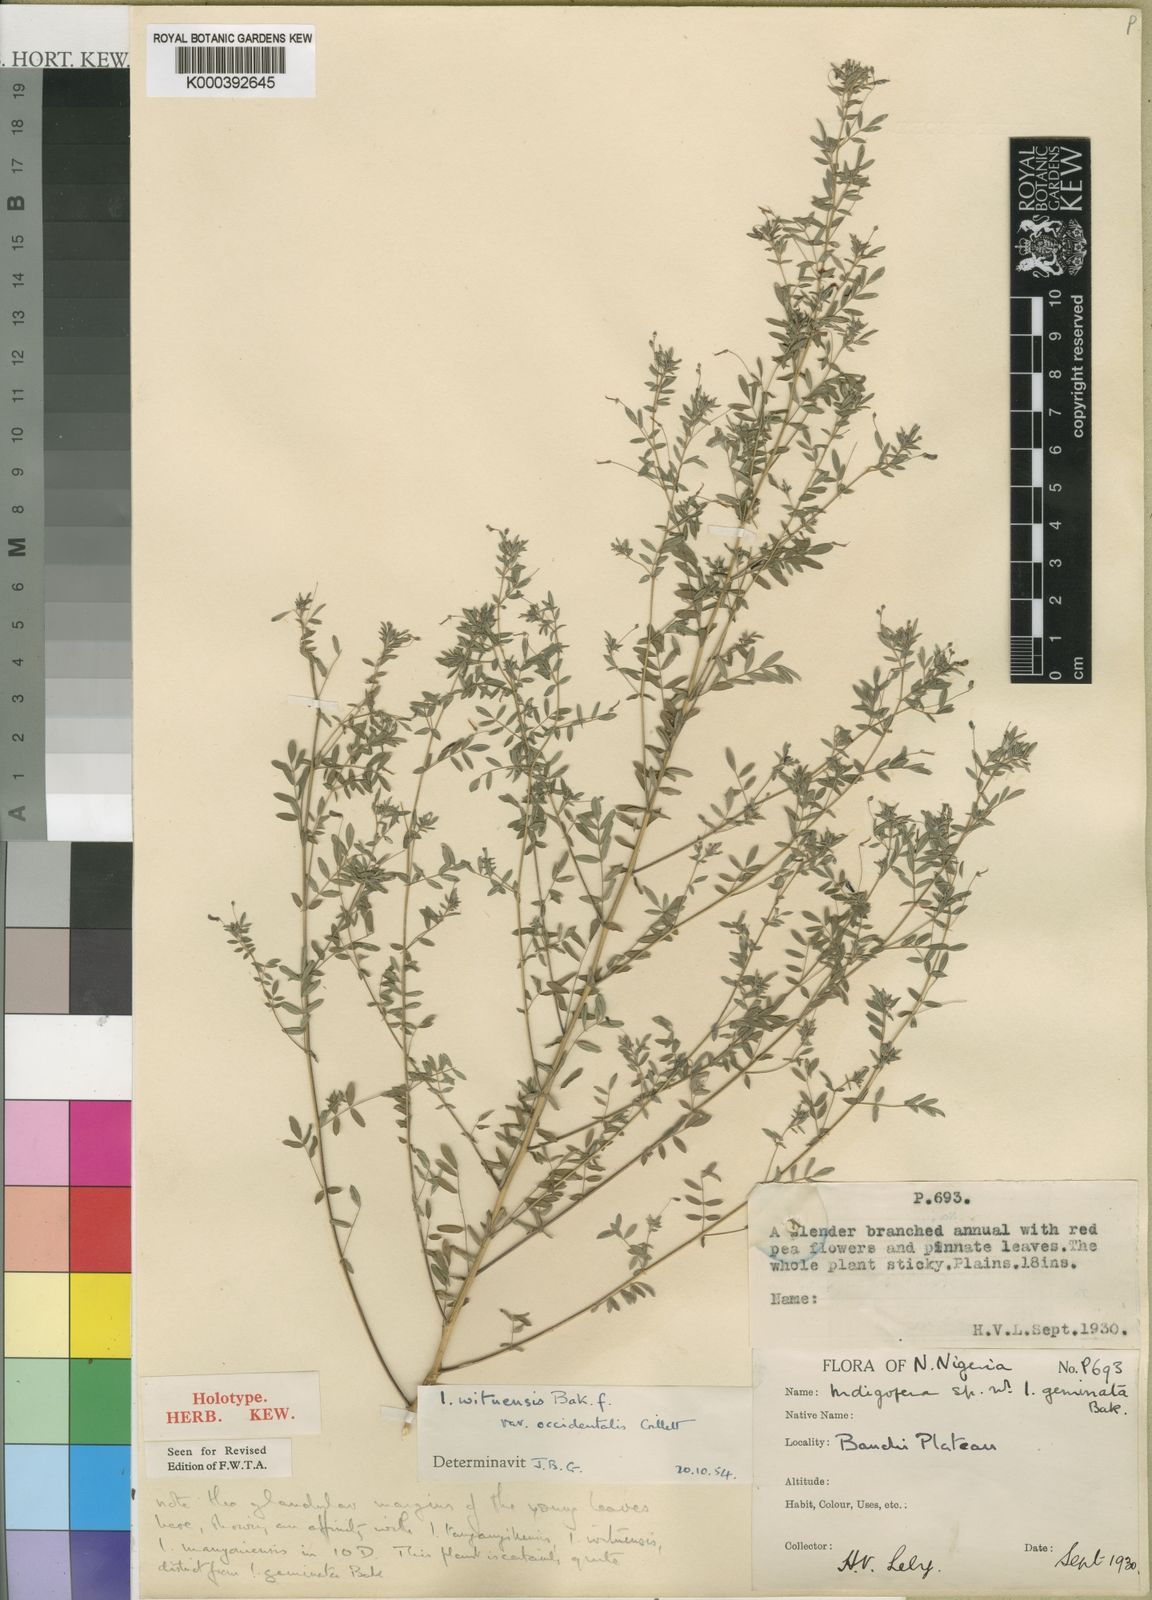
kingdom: Plantae
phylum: Tracheophyta
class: Magnoliopsida
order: Fabales
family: Fabaceae
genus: Indigofera
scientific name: Indigofera wituensis
